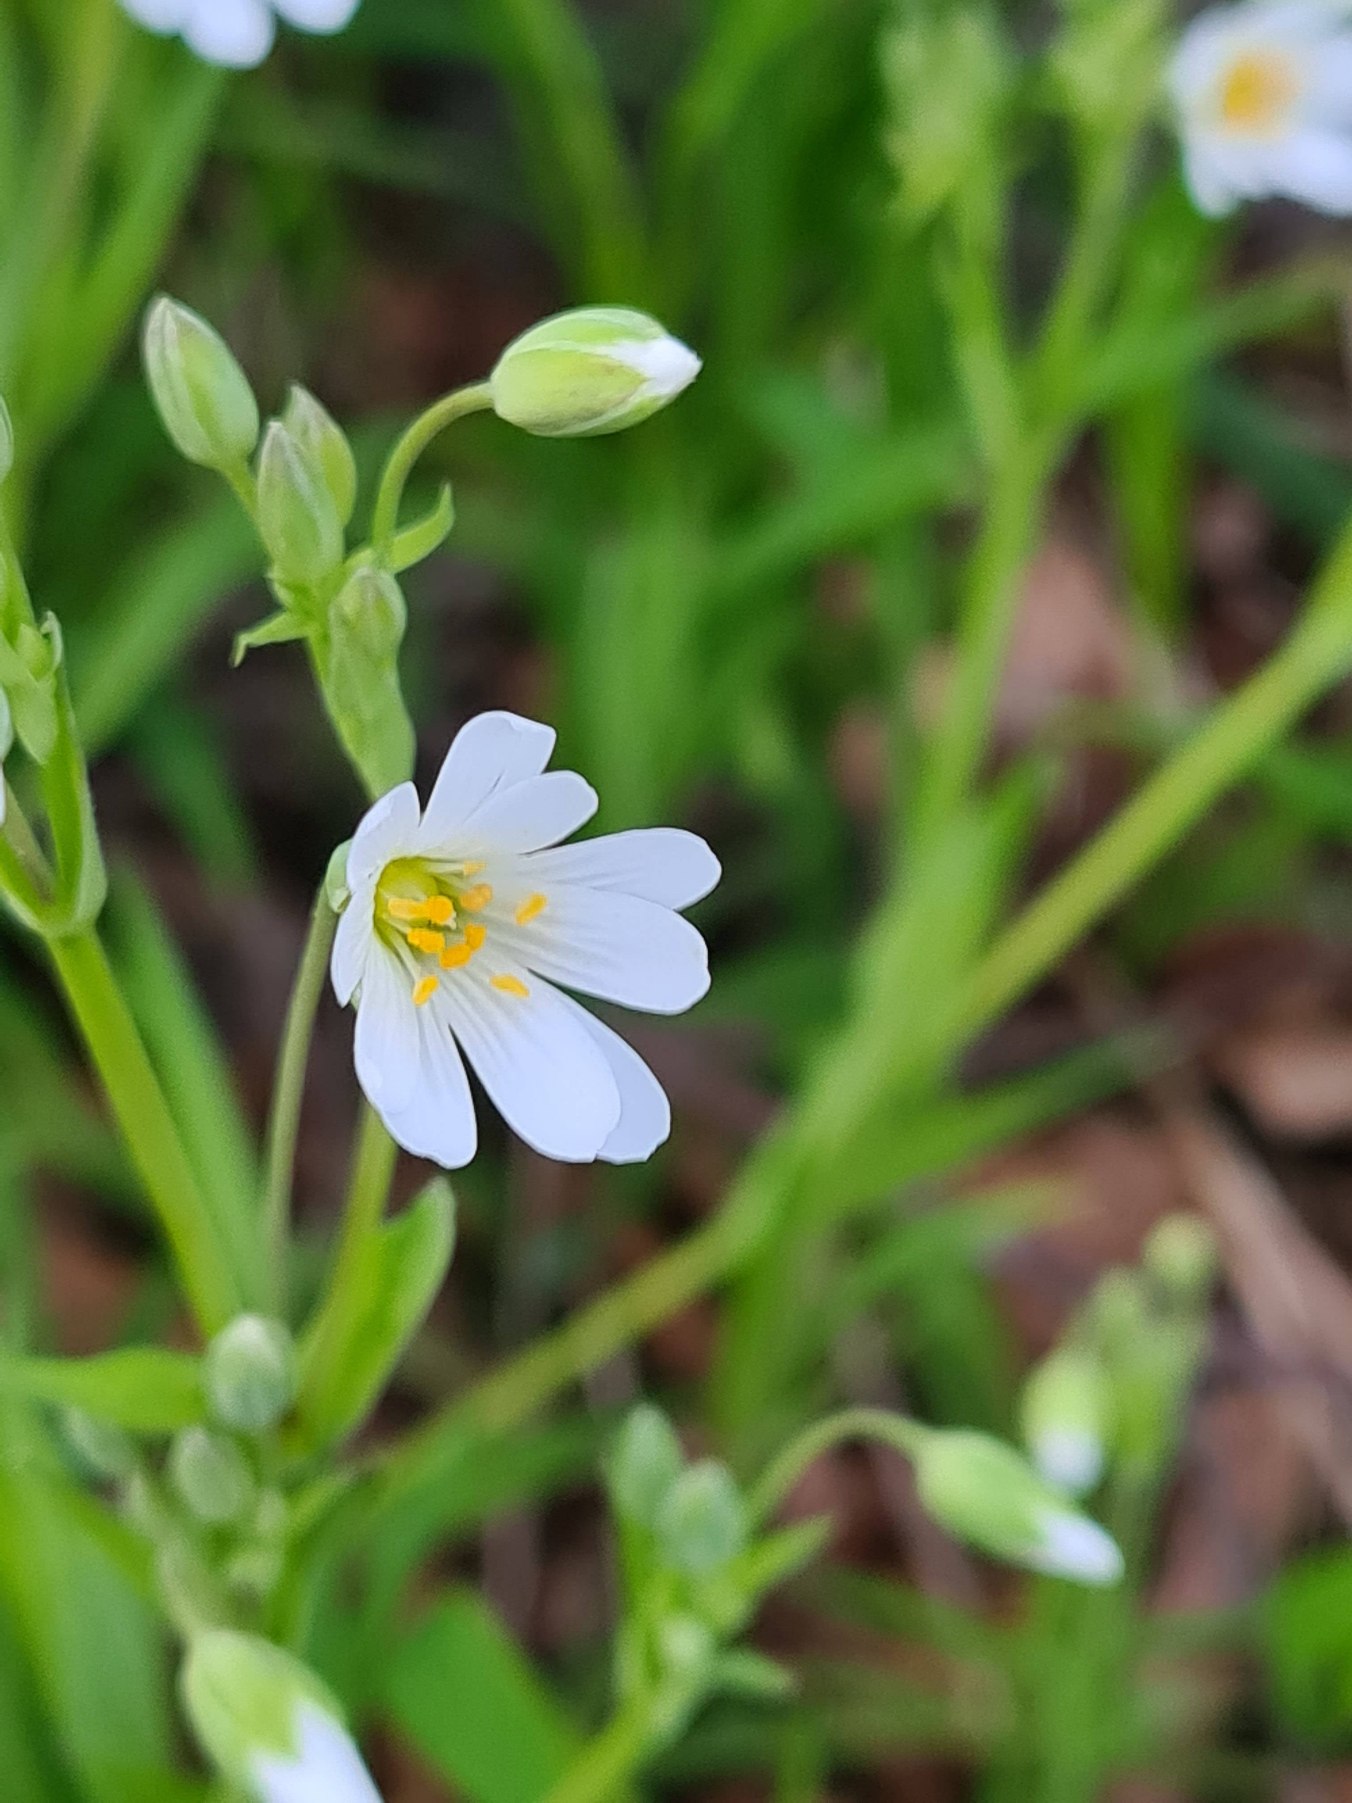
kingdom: Plantae
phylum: Tracheophyta
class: Magnoliopsida
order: Caryophyllales
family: Caryophyllaceae
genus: Rabelera
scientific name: Rabelera holostea
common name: Stor fladstjerne
